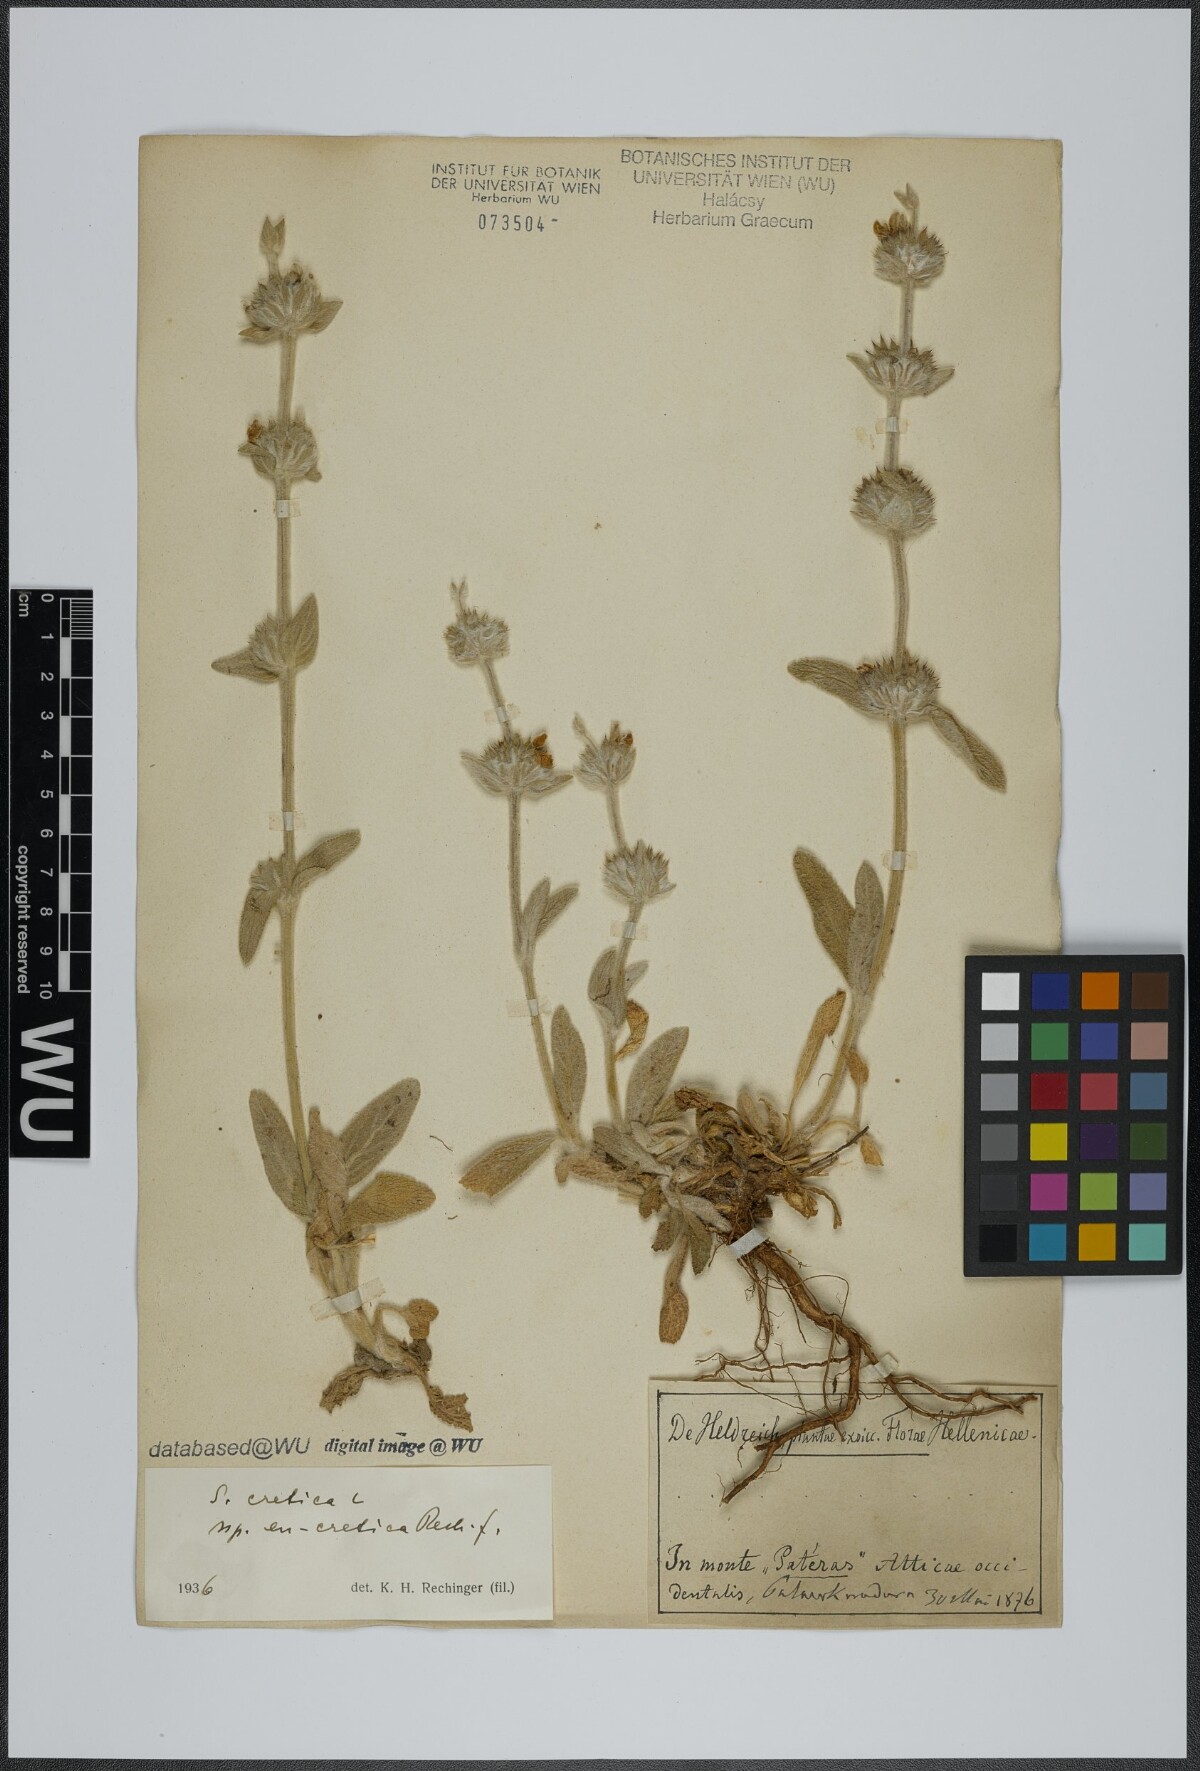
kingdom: Plantae
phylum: Tracheophyta
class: Magnoliopsida
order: Lamiales
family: Lamiaceae
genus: Stachys
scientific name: Stachys cretica
